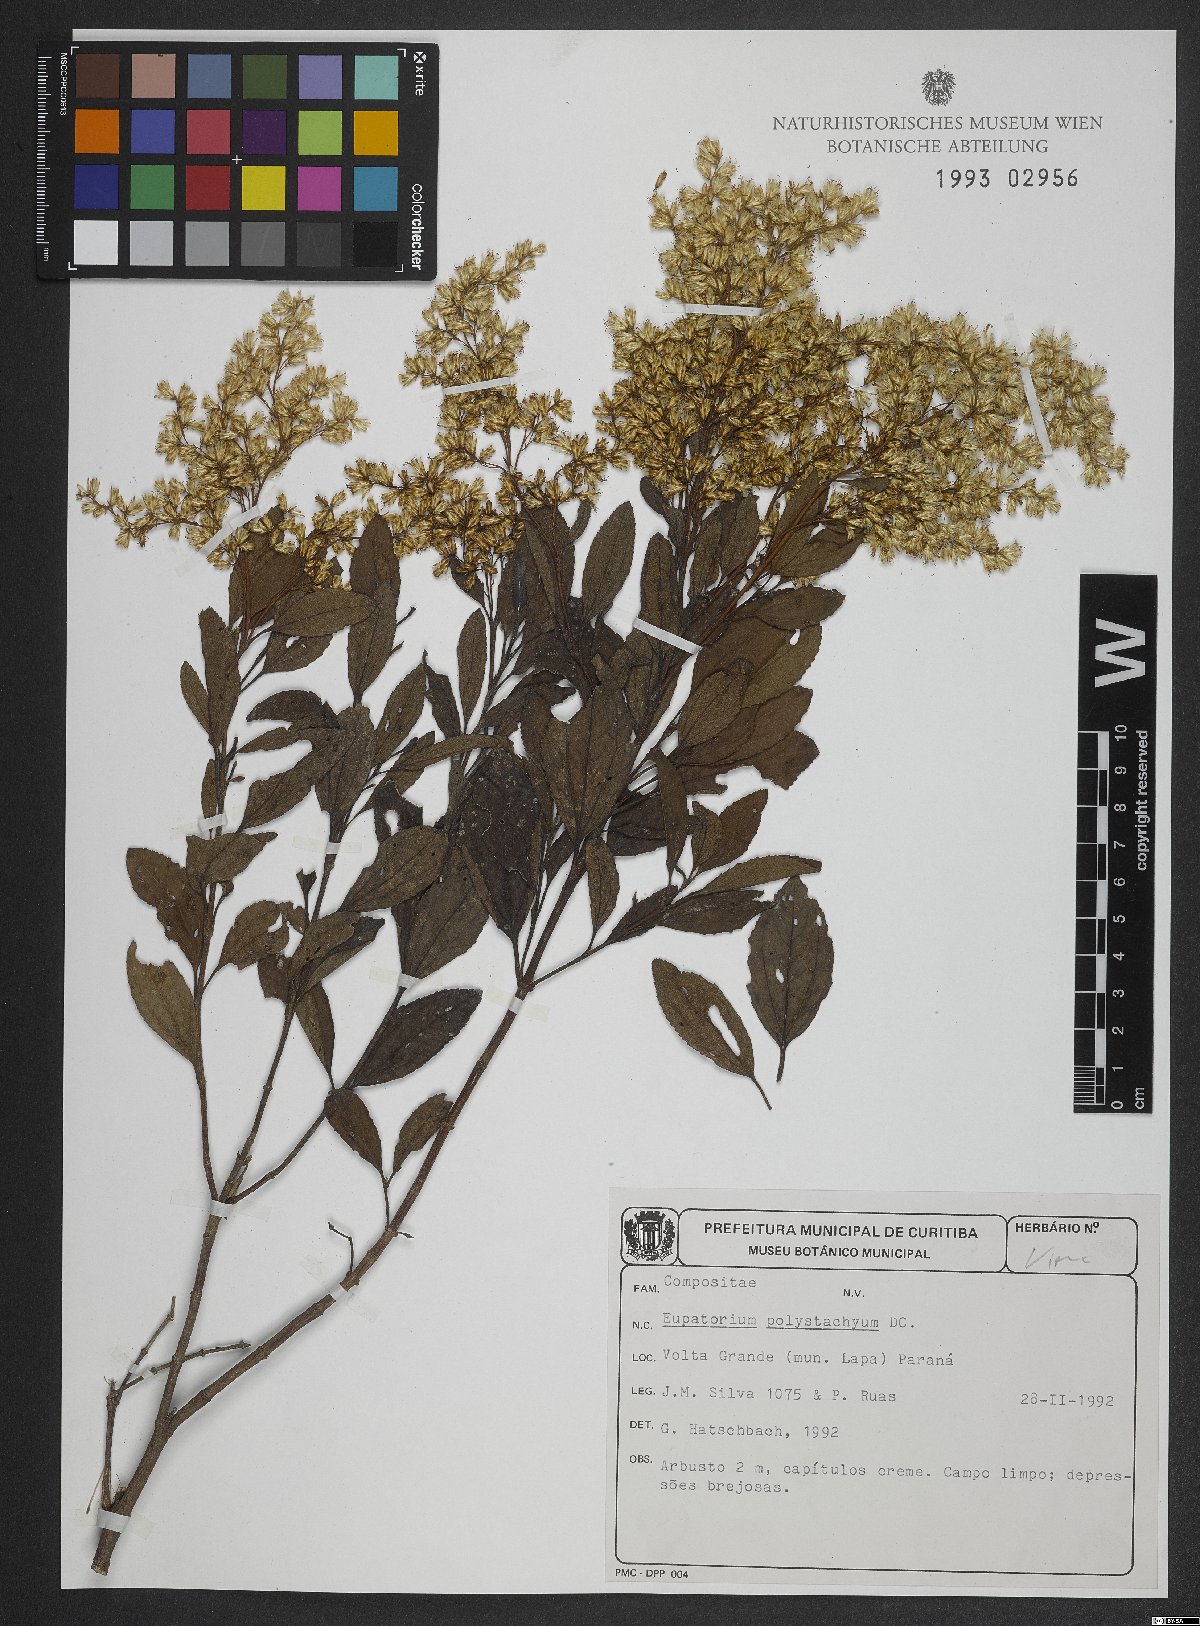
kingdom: Plantae
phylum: Tracheophyta
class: Magnoliopsida
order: Asterales
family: Asteraceae
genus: Symphyopappus
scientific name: Symphyopappus compressus
